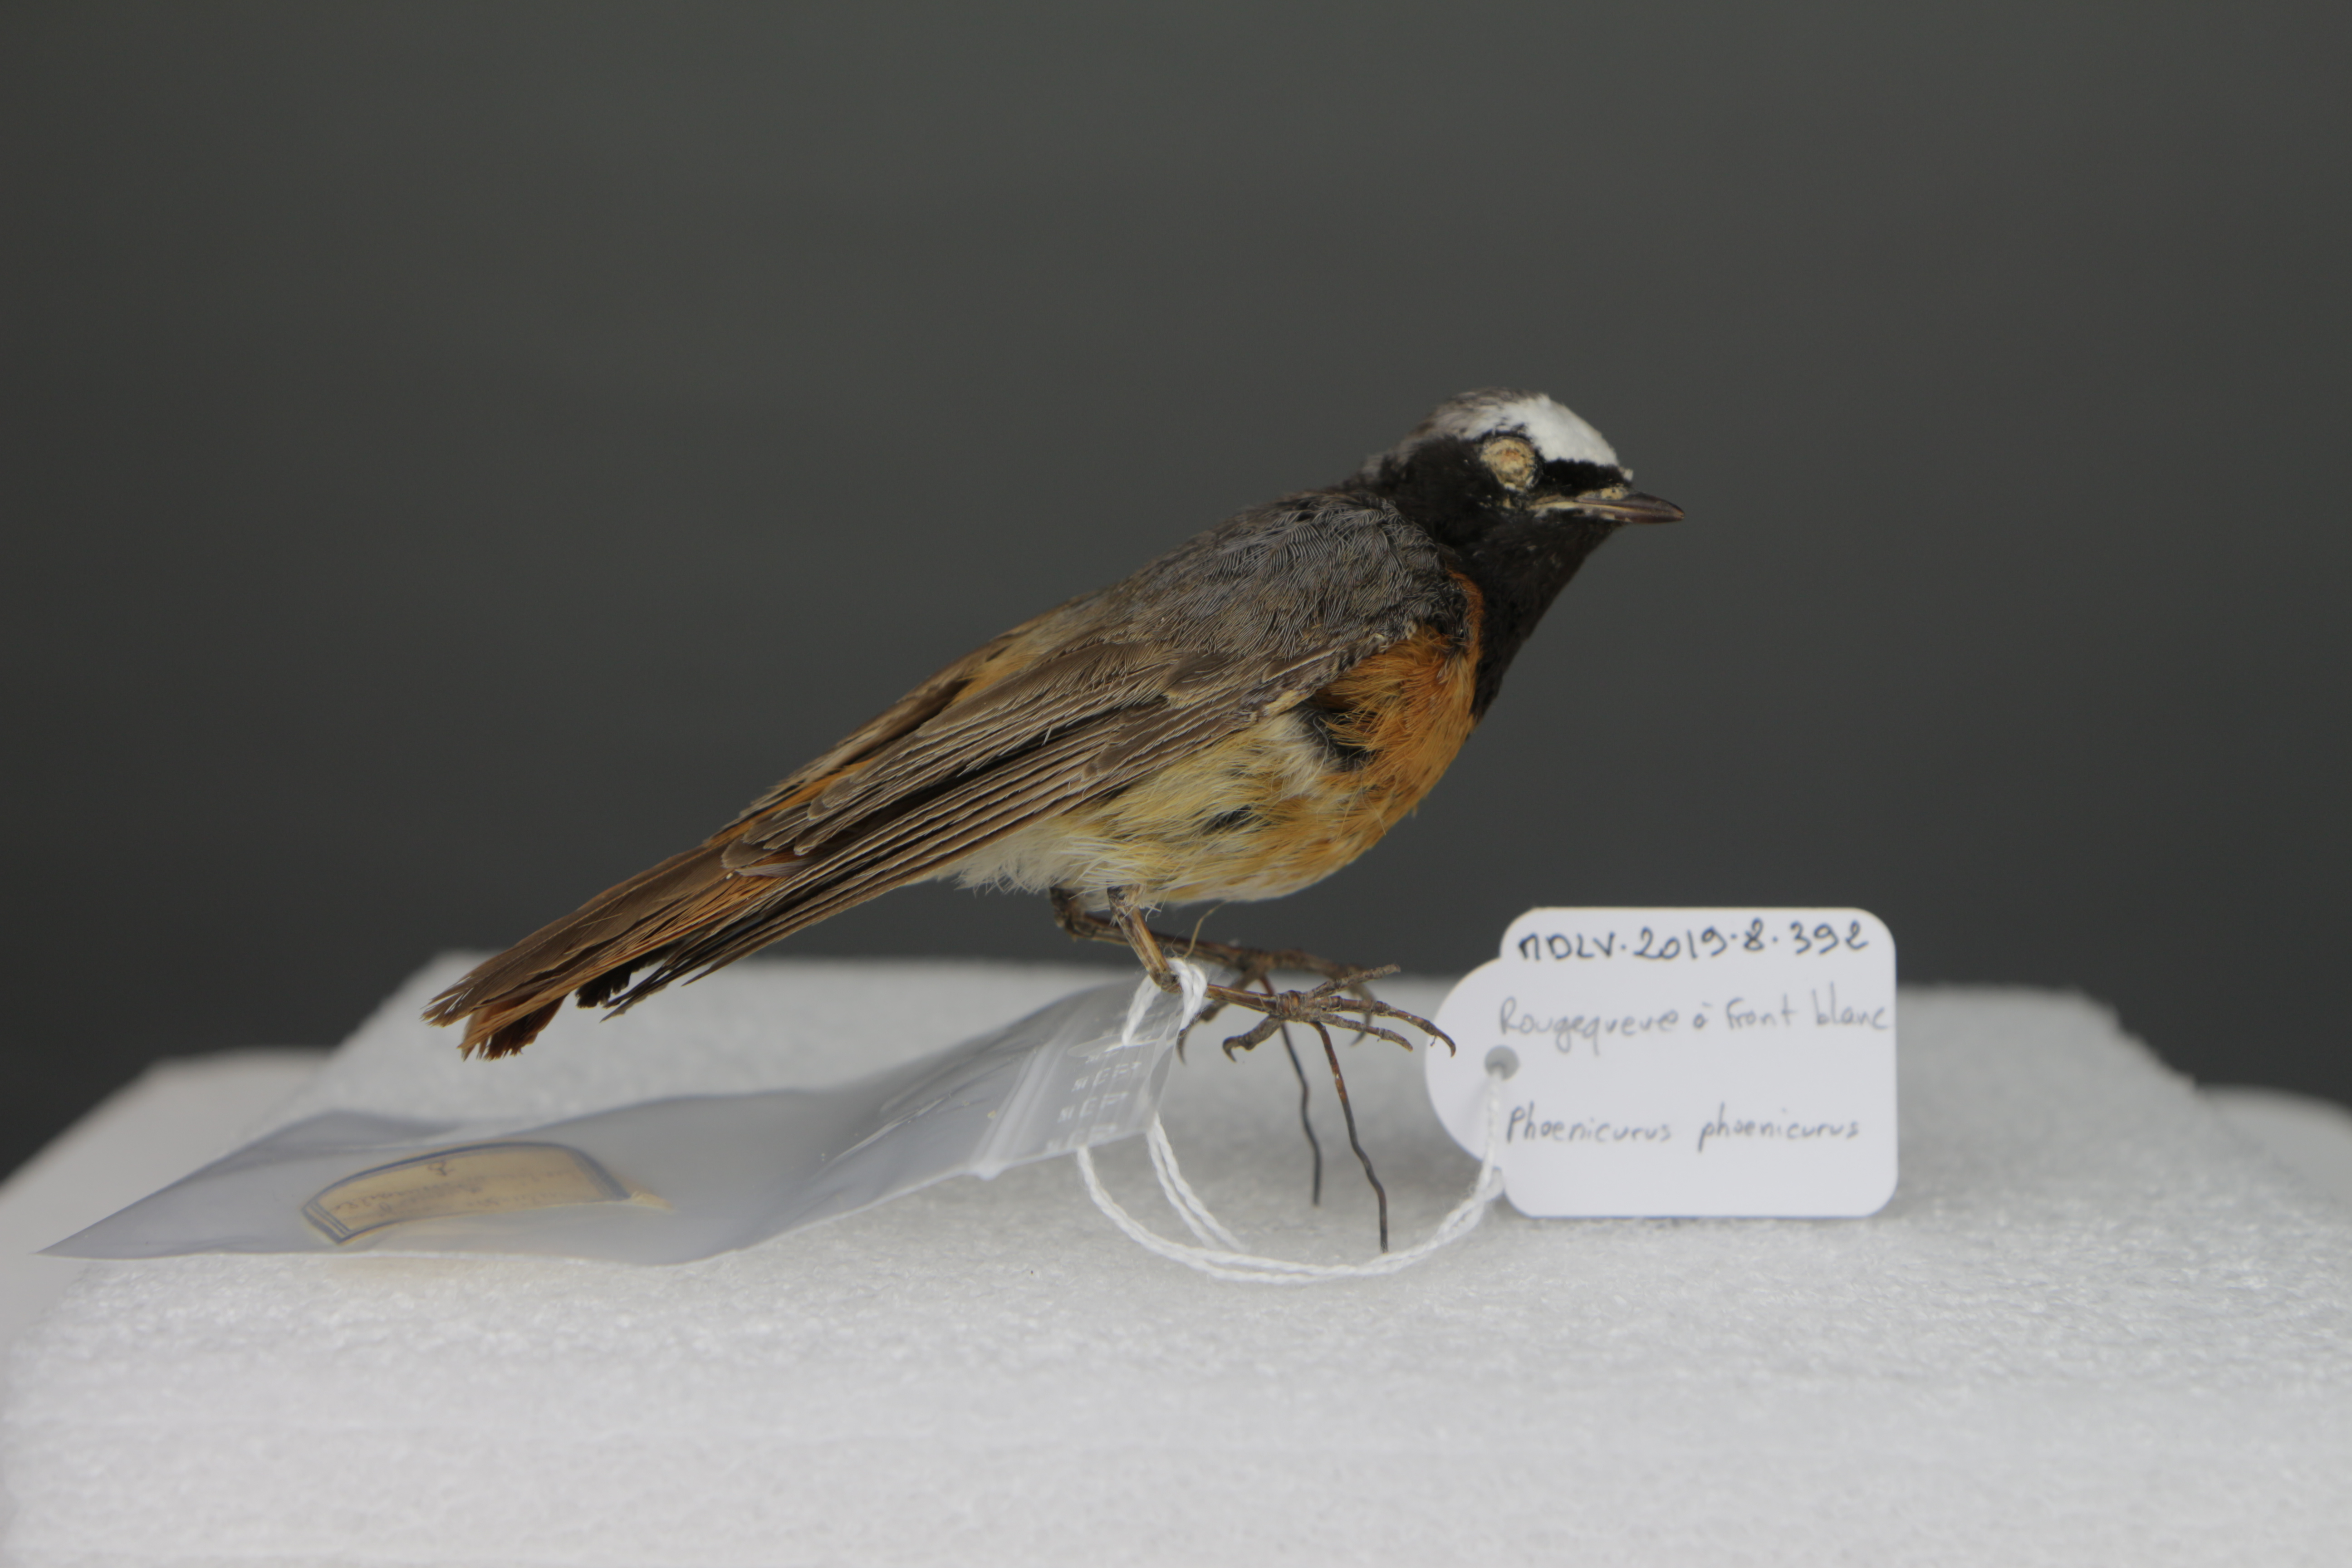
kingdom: Animalia
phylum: Chordata
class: Aves
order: Passeriformes
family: Muscicapidae
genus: Phoenicurus
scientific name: Phoenicurus phoenicurus
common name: Common redstart
